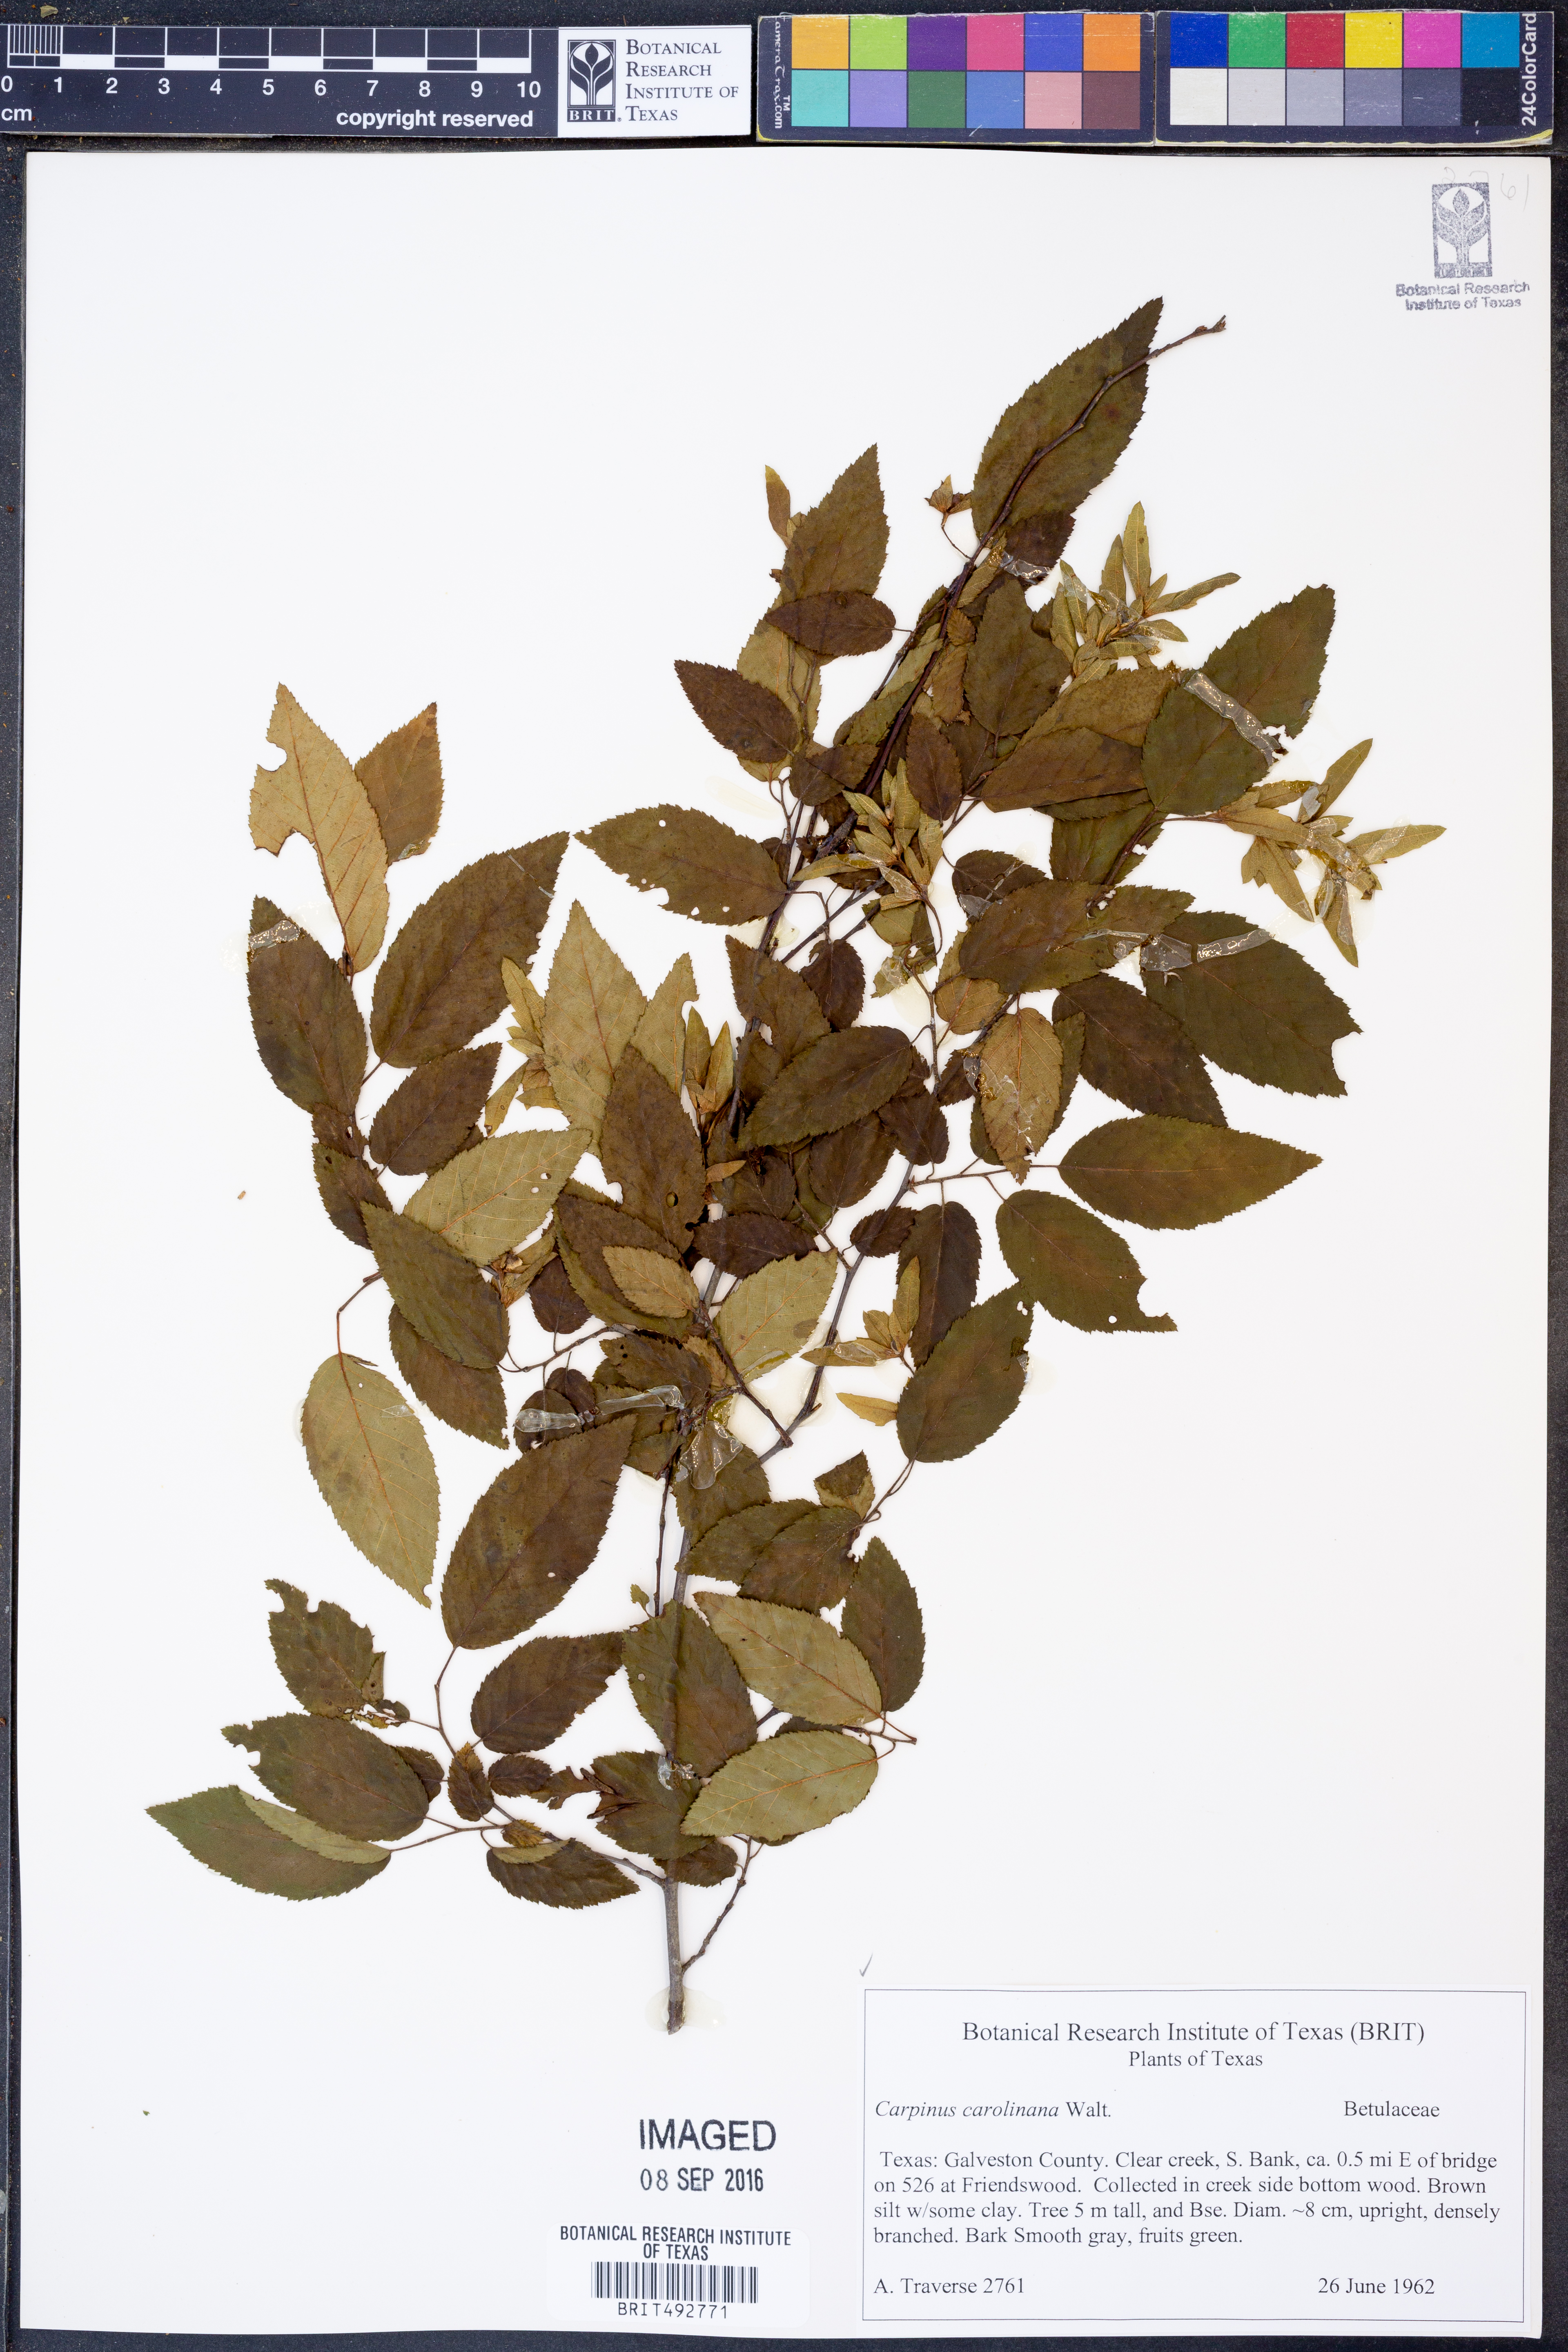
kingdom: Plantae
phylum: Tracheophyta
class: Magnoliopsida
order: Fagales
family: Betulaceae
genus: Carpinus
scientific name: Carpinus caroliniana
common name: American hornbeam
